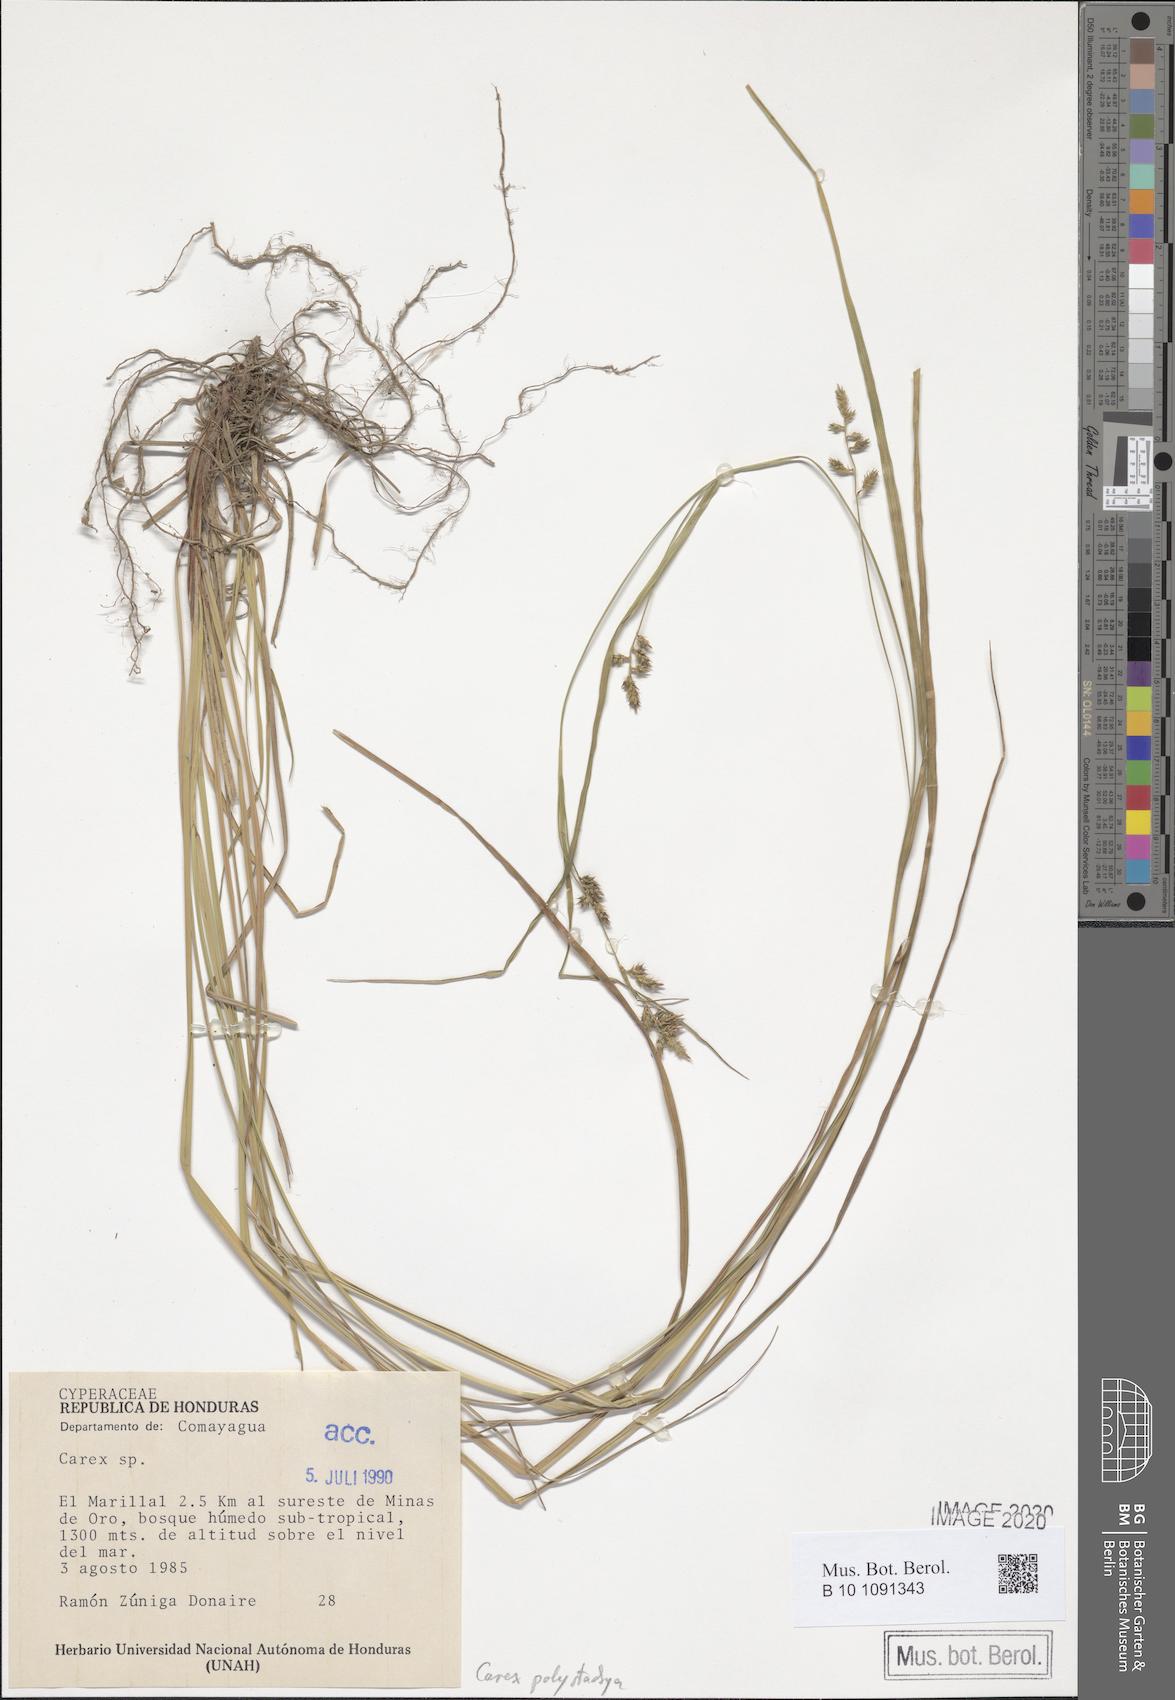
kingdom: Plantae
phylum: Tracheophyta
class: Liliopsida
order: Poales
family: Cyperaceae
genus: Carex
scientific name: Carex polystachya
